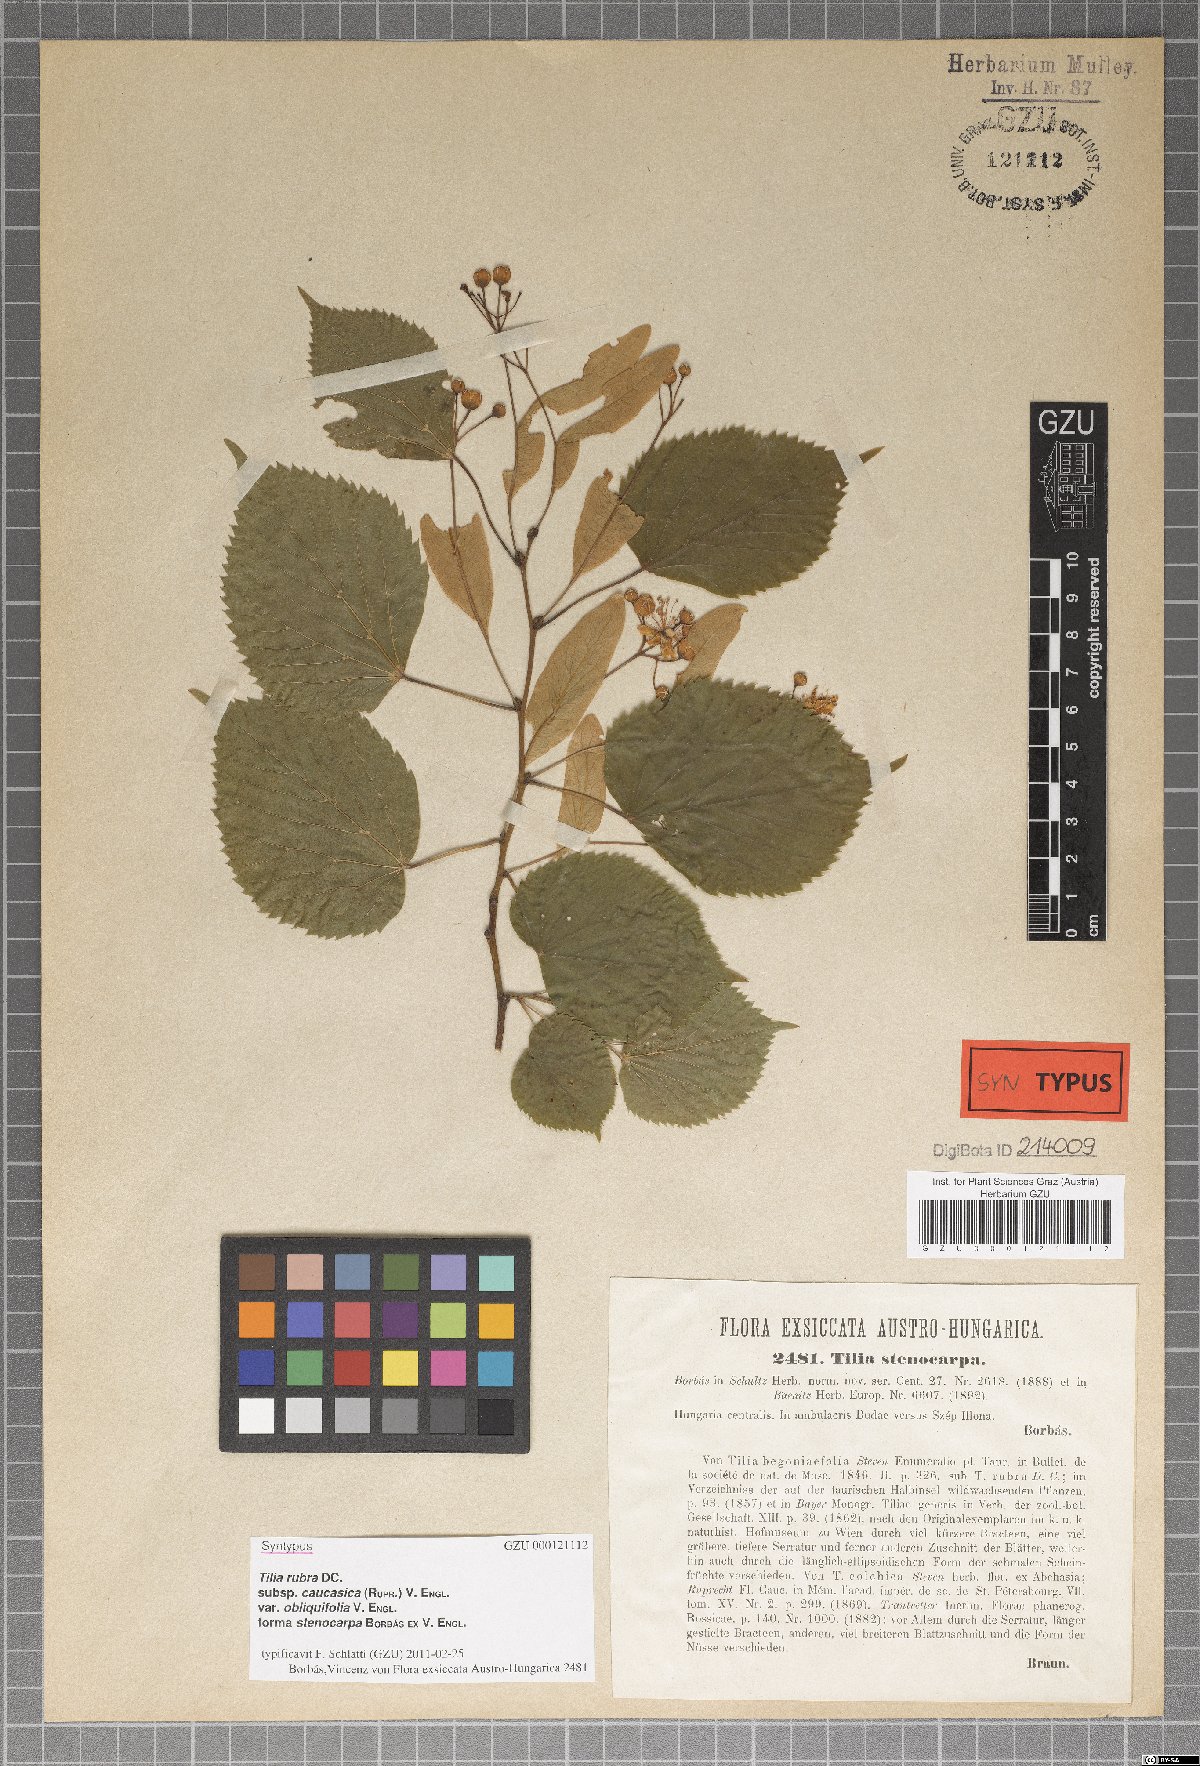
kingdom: Plantae
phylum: Tracheophyta
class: Magnoliopsida
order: Malvales
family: Malvaceae
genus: Tilia
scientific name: Tilia platyphyllos
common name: Large-leaved lime
